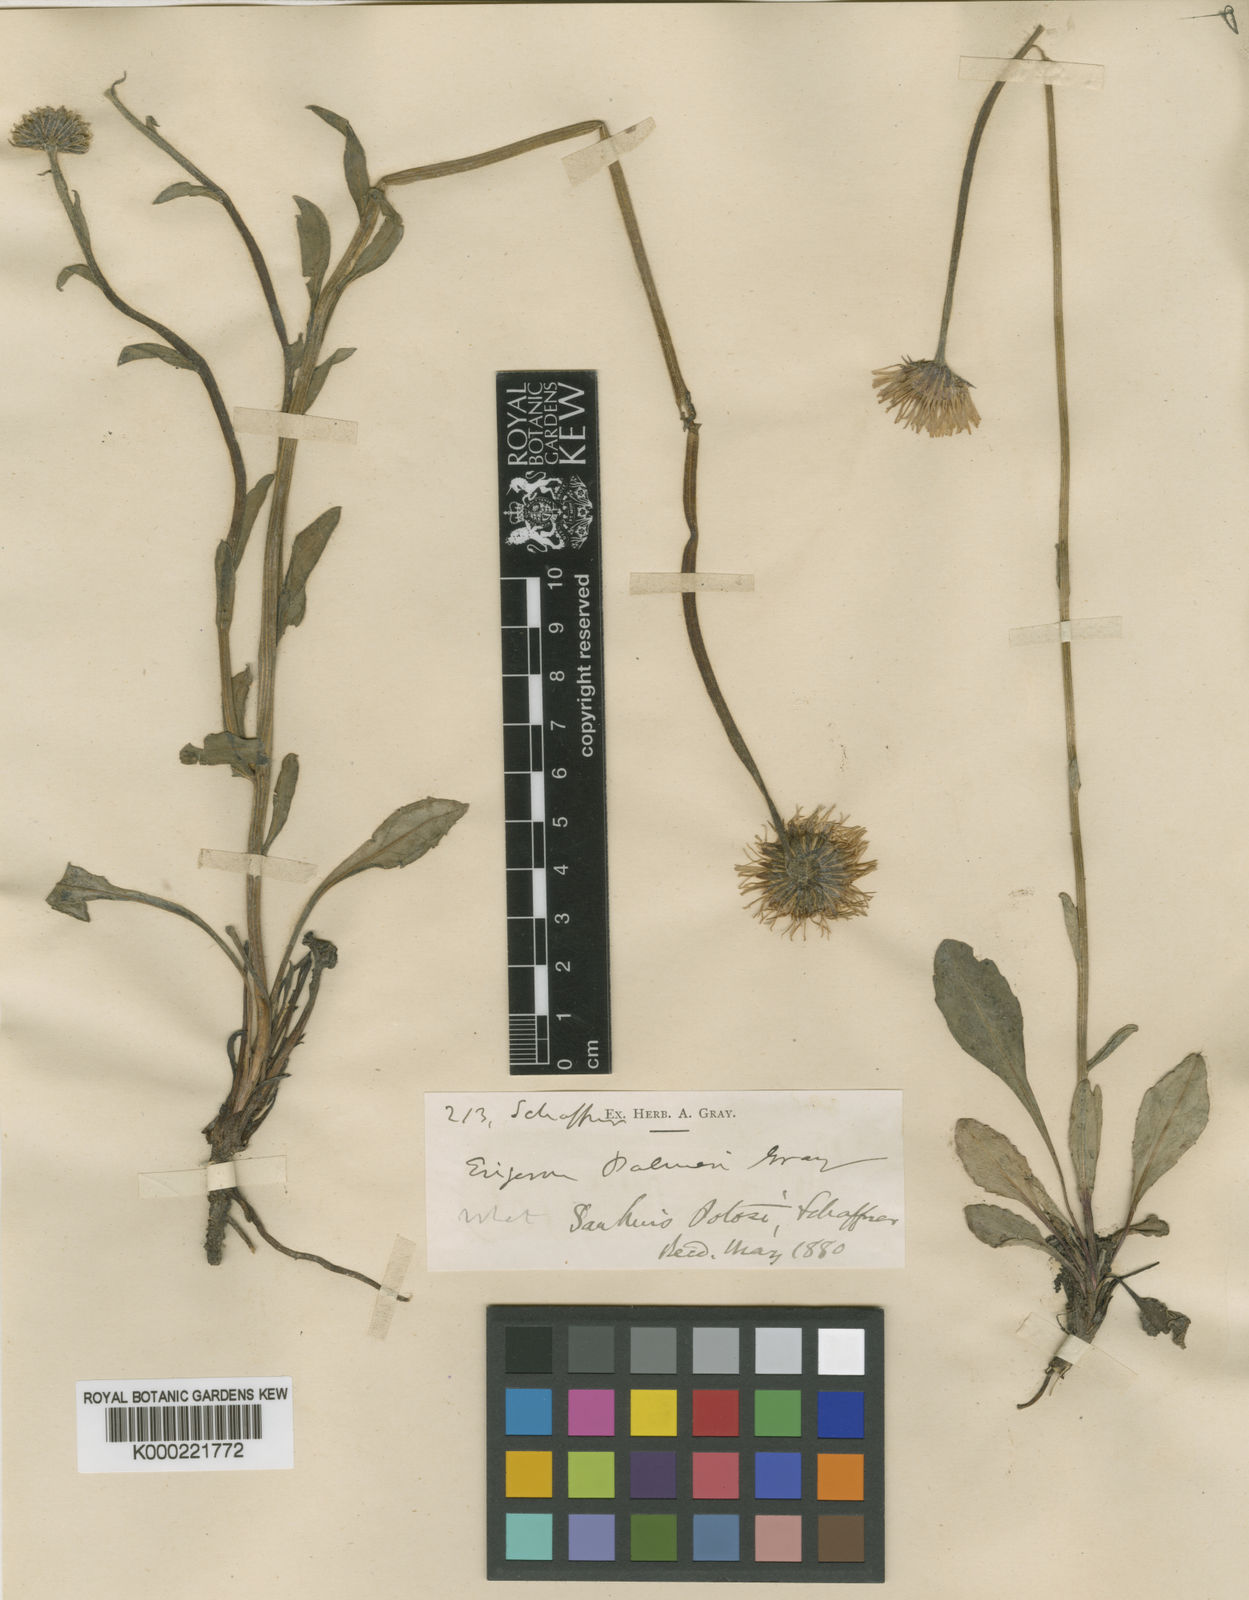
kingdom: Plantae
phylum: Tracheophyta
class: Magnoliopsida
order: Asterales
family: Asteraceae
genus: Erigeron
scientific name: Erigeron palmeri
